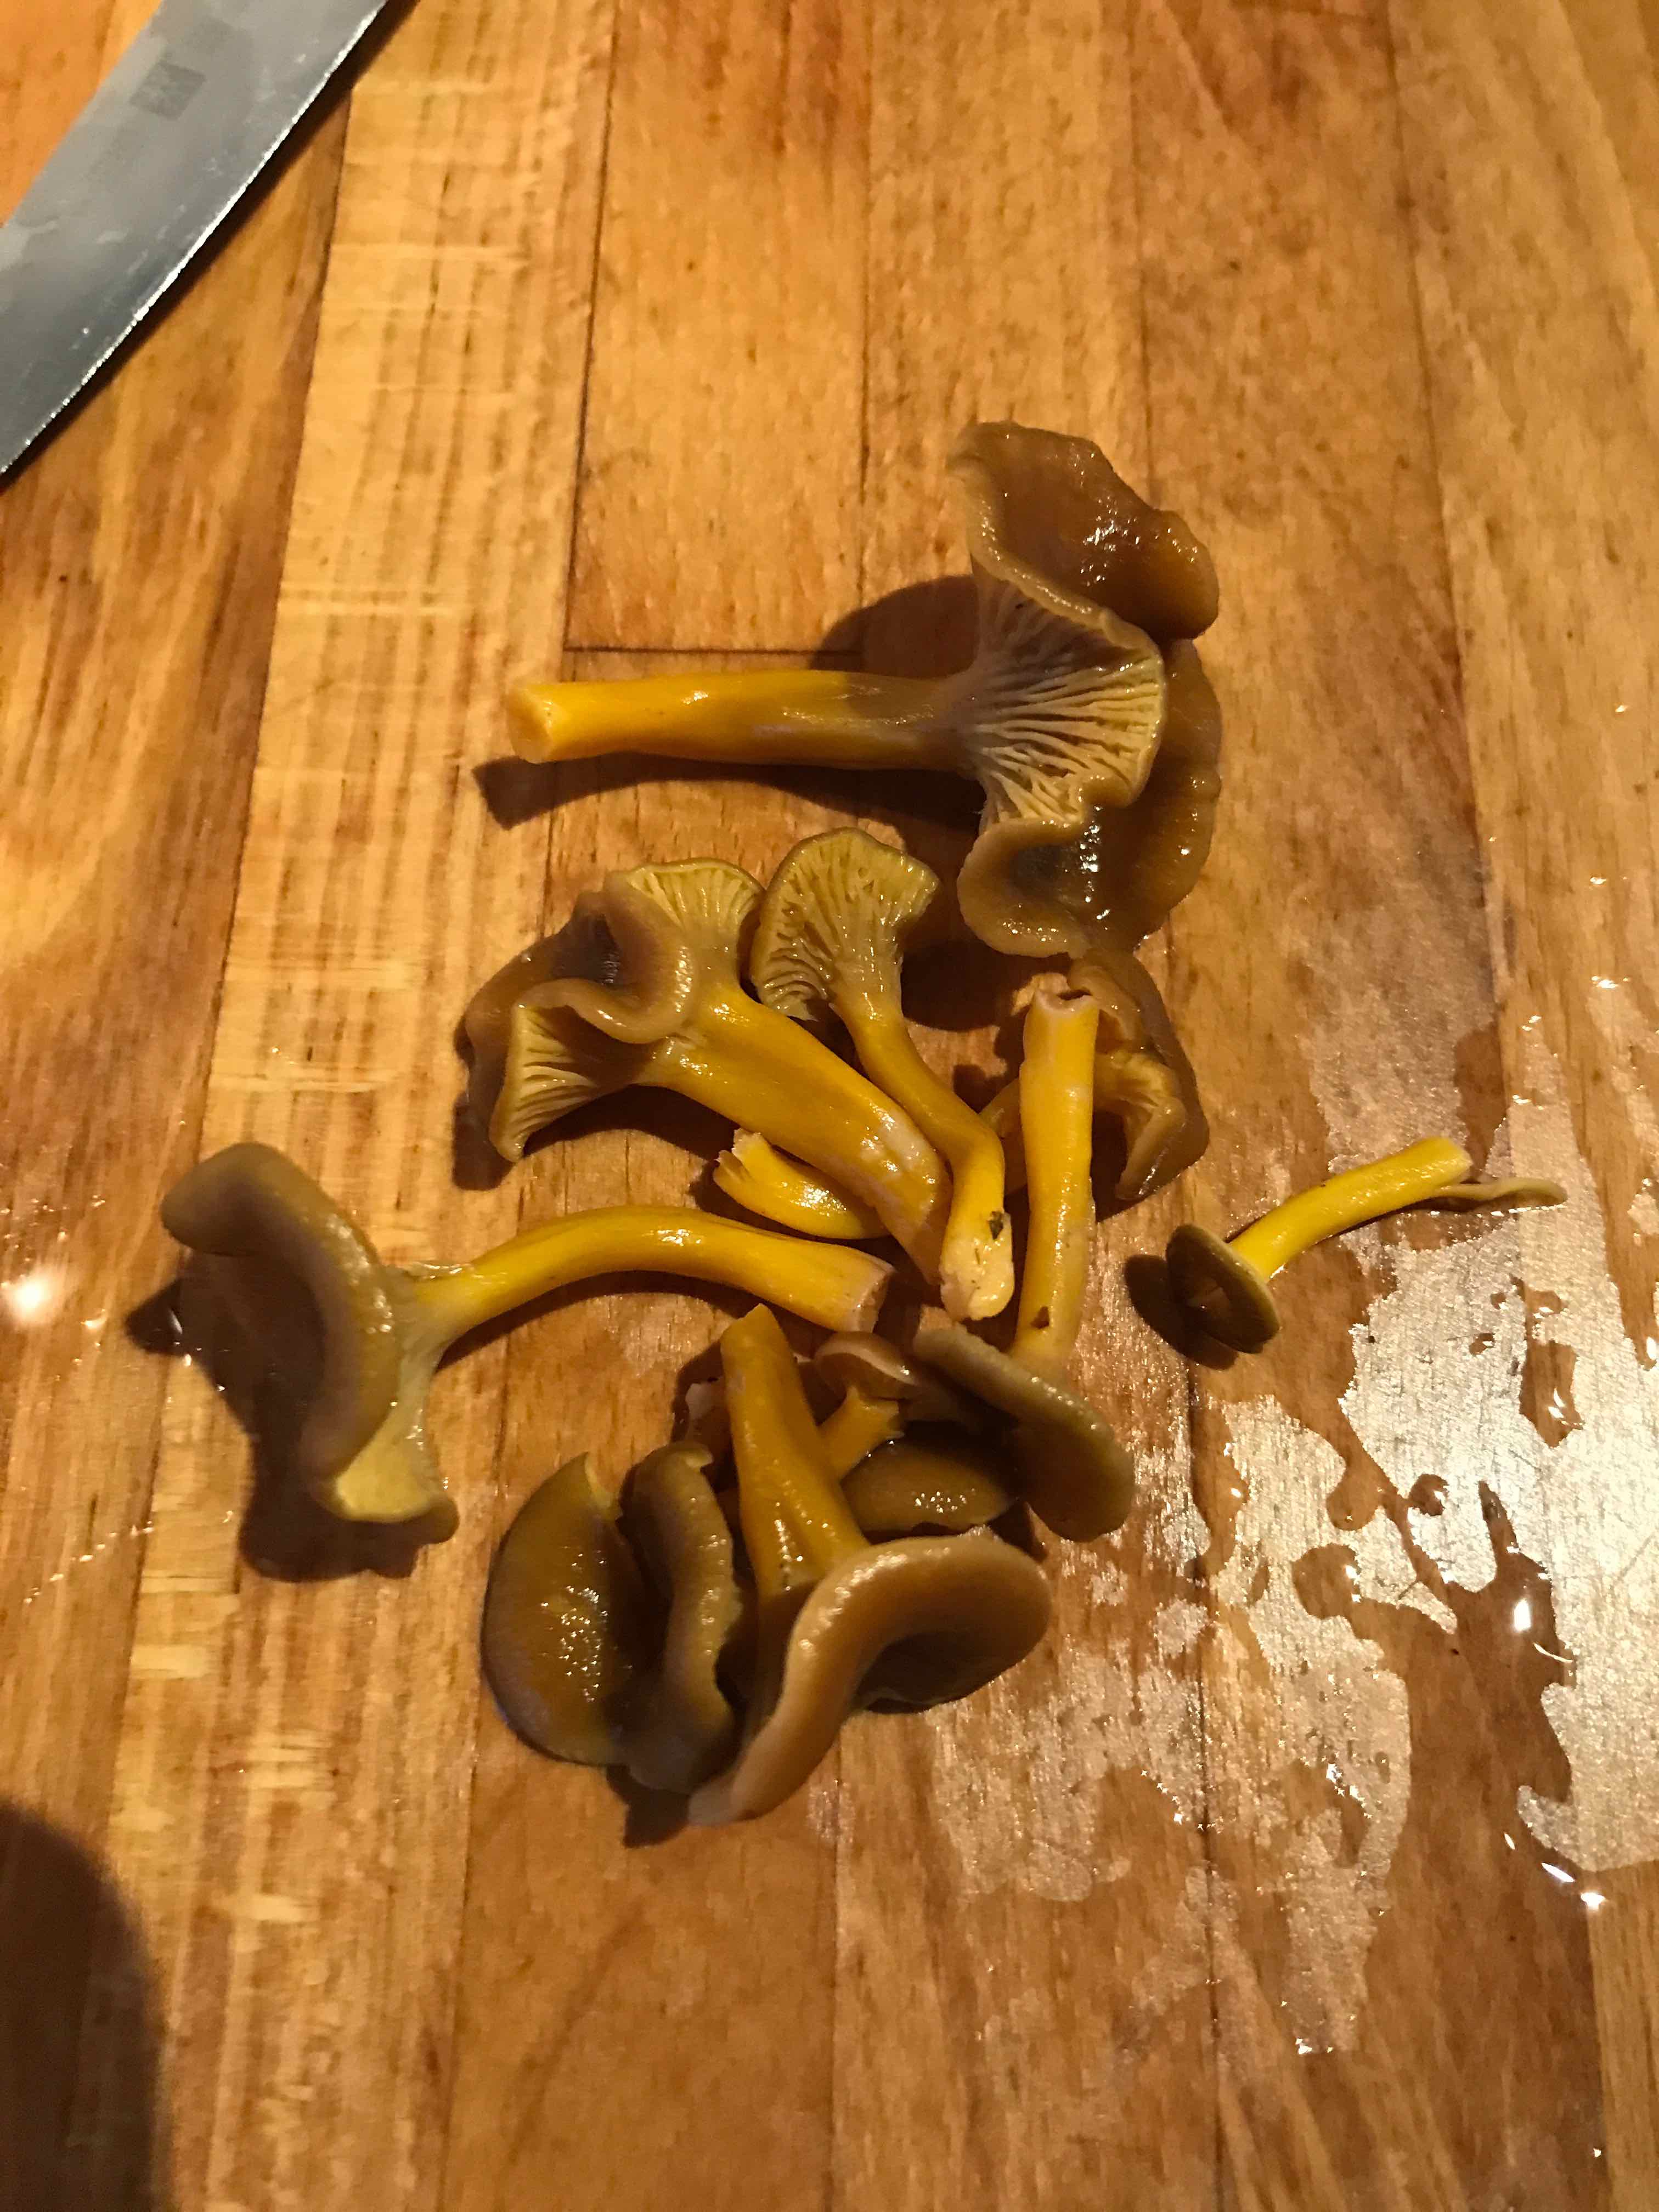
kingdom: Fungi
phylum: Basidiomycota
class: Agaricomycetes
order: Cantharellales
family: Hydnaceae
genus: Craterellus
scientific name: Craterellus tubaeformis
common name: tragt-kantarel
